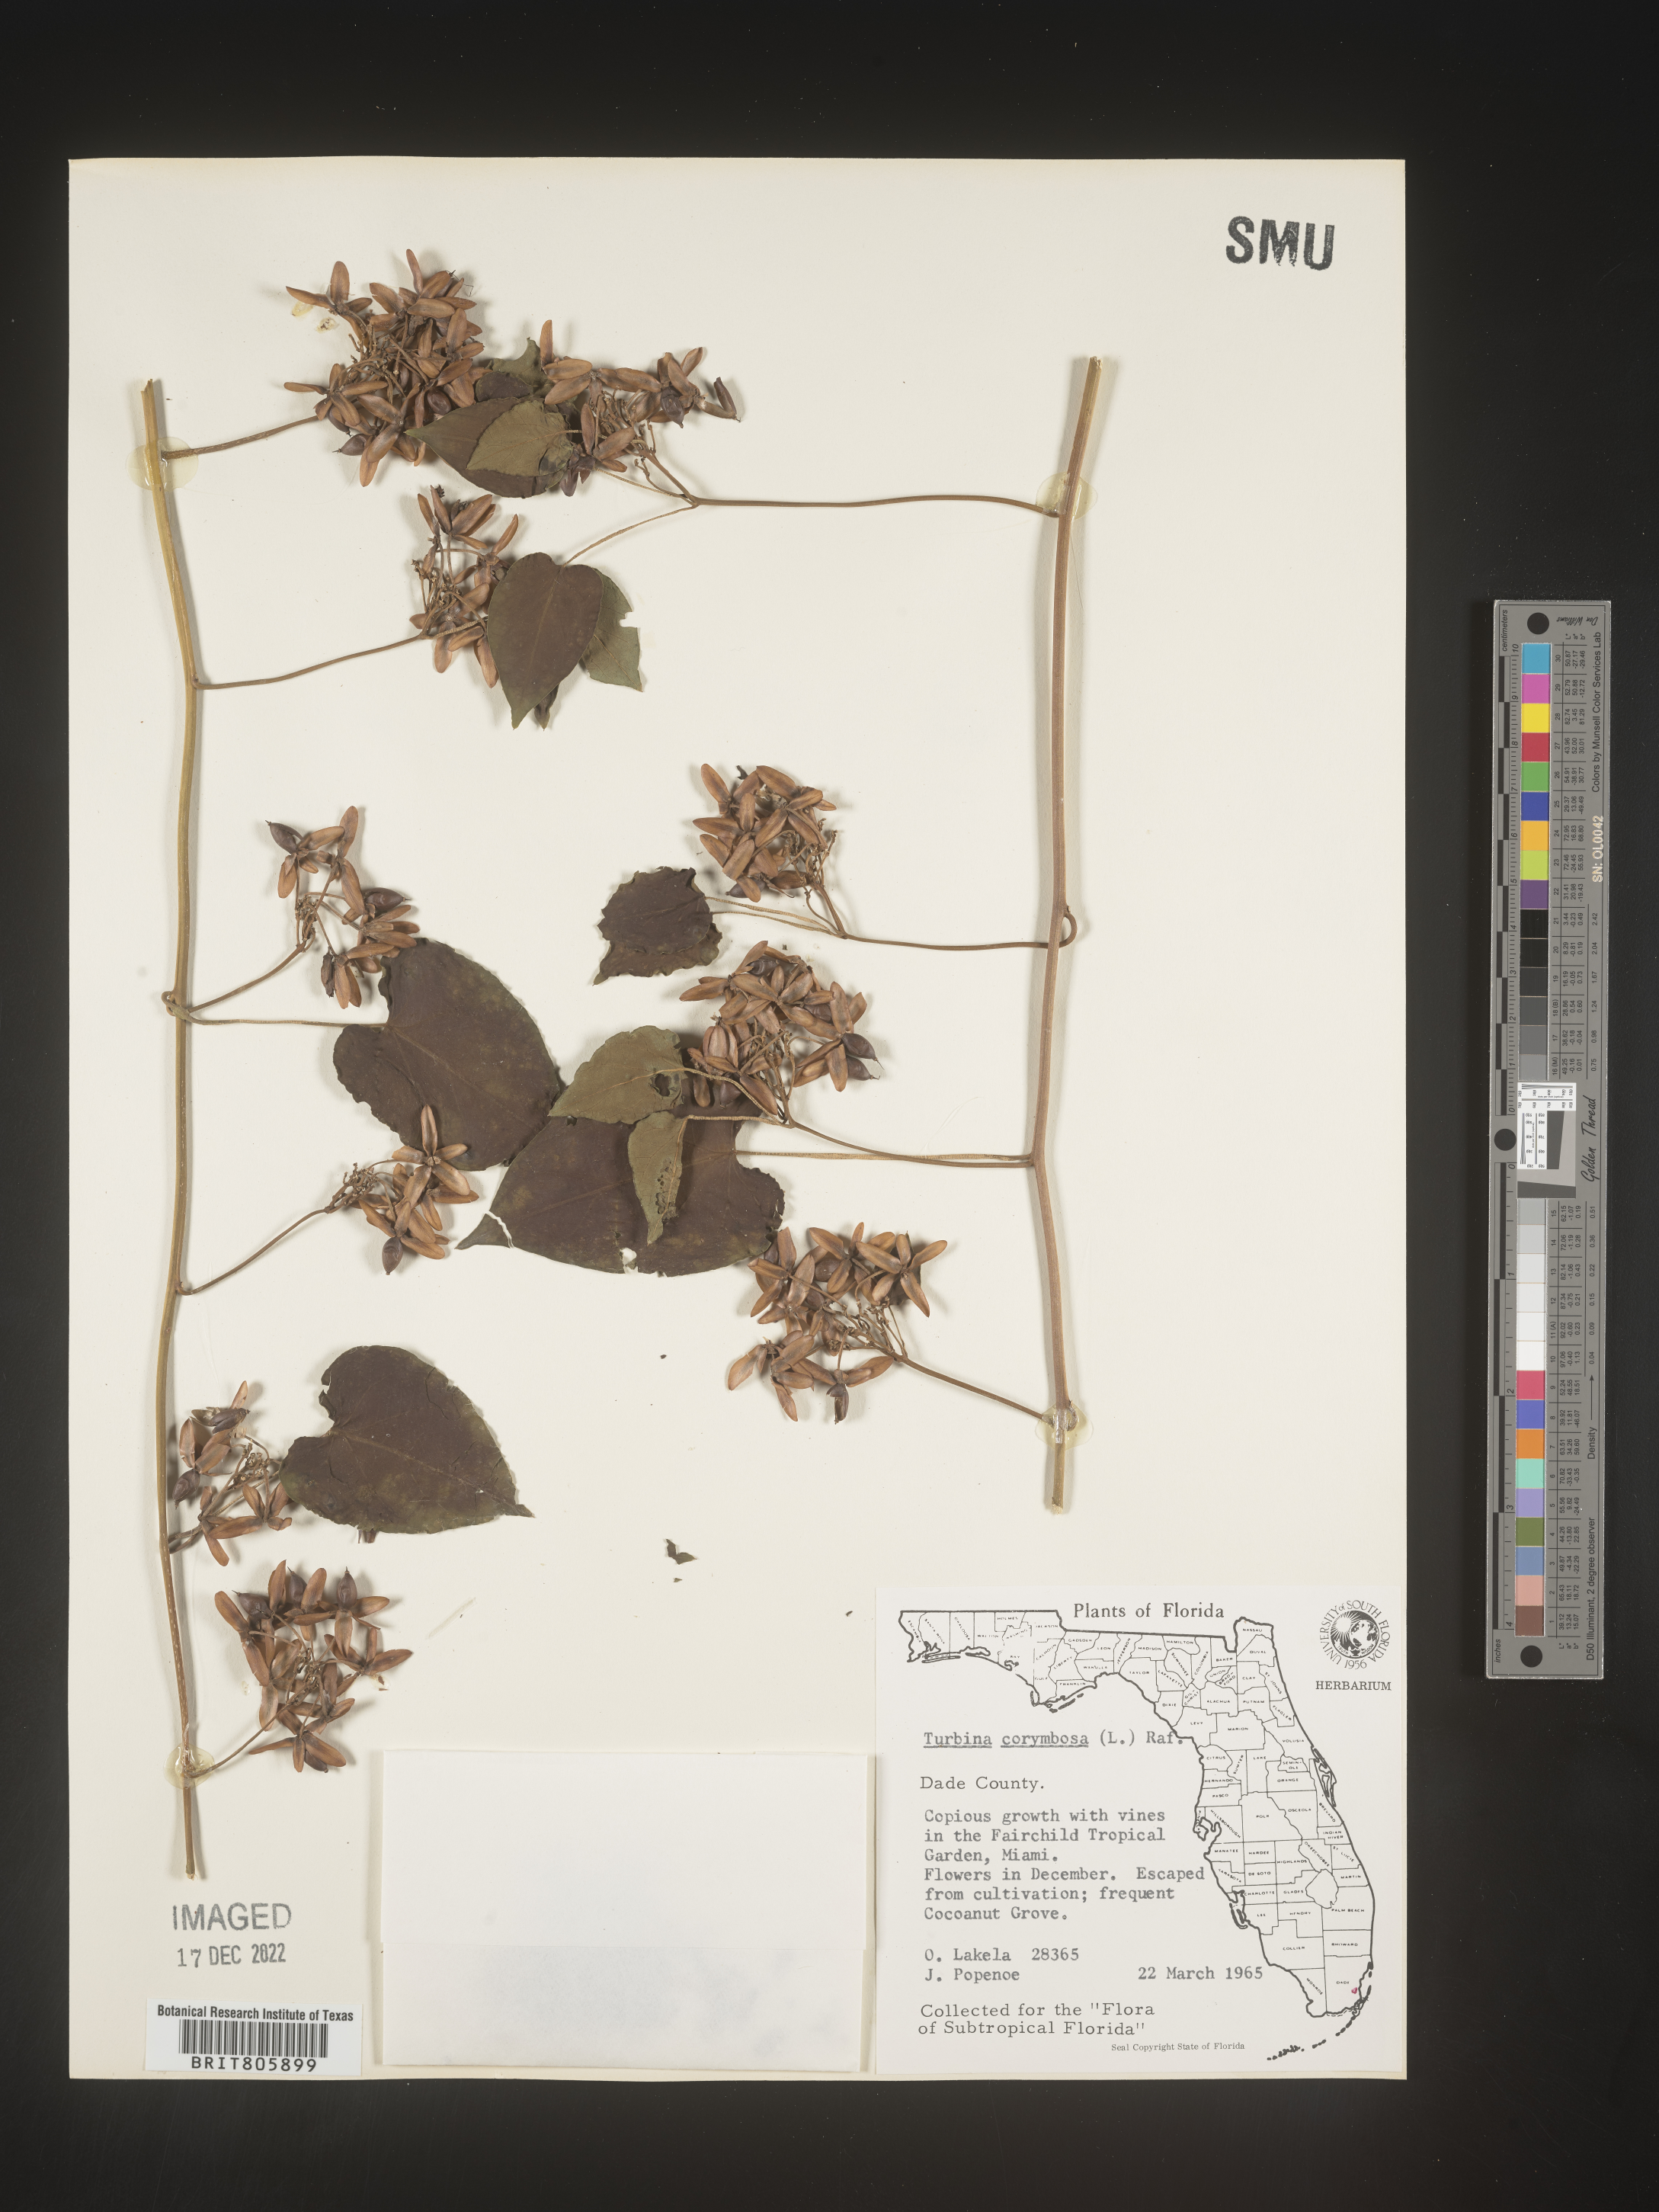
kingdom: Animalia
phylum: Mollusca
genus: Turbina
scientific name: Turbina
